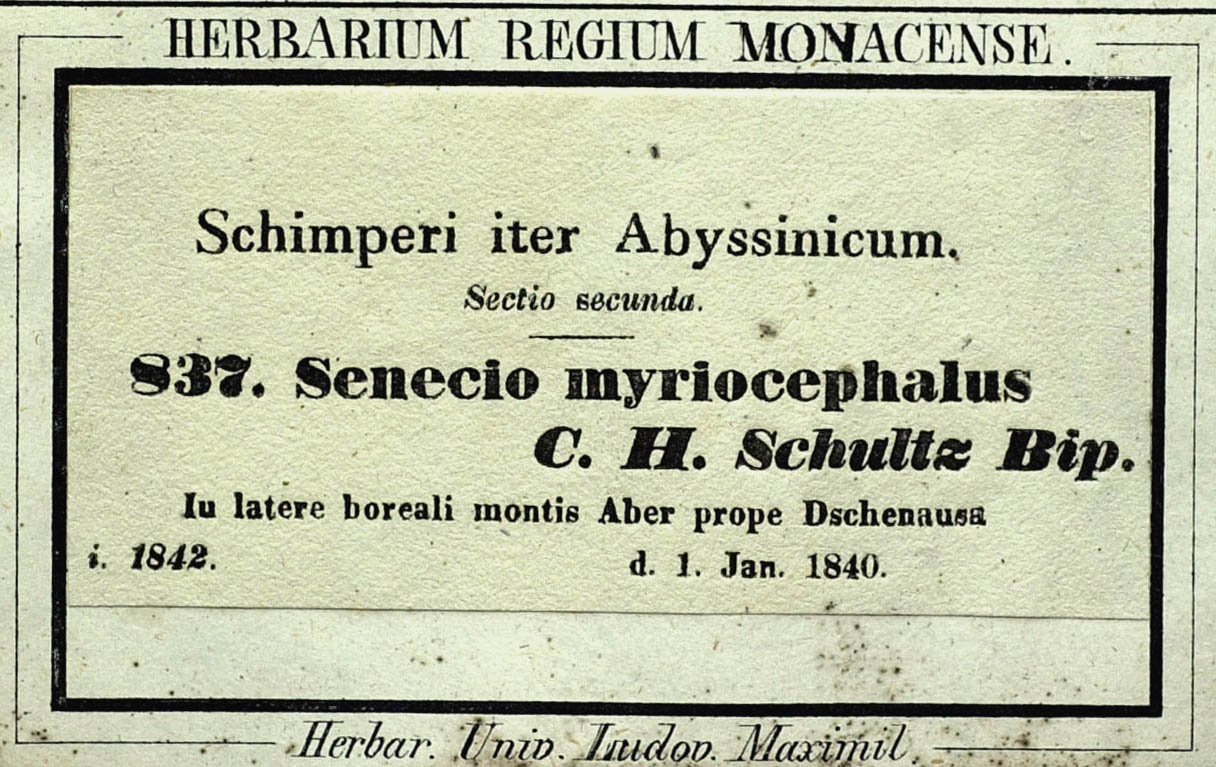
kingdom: Plantae
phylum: Tracheophyta
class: Magnoliopsida
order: Asterales
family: Asteraceae
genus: Senecio
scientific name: Senecio myriocephalus
